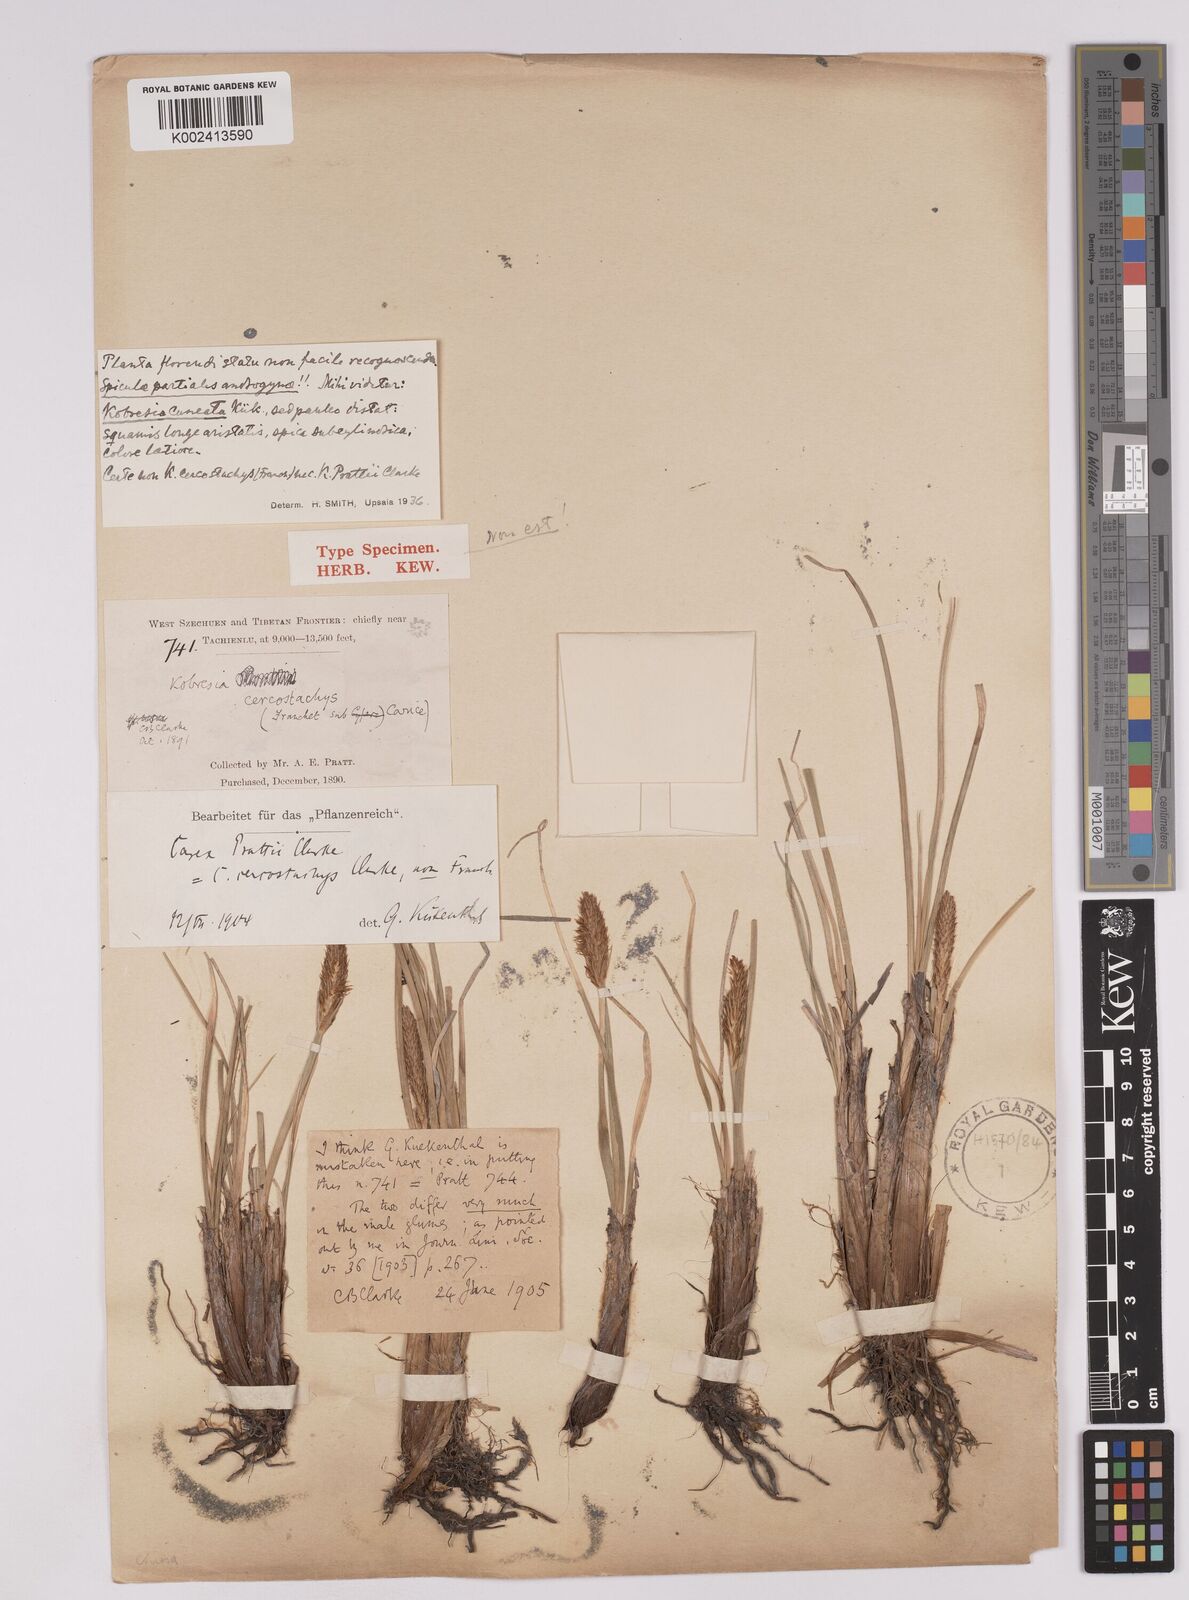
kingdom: Plantae
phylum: Tracheophyta
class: Liliopsida
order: Poales
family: Cyperaceae
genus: Carex
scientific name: Carex lepidochlamys
